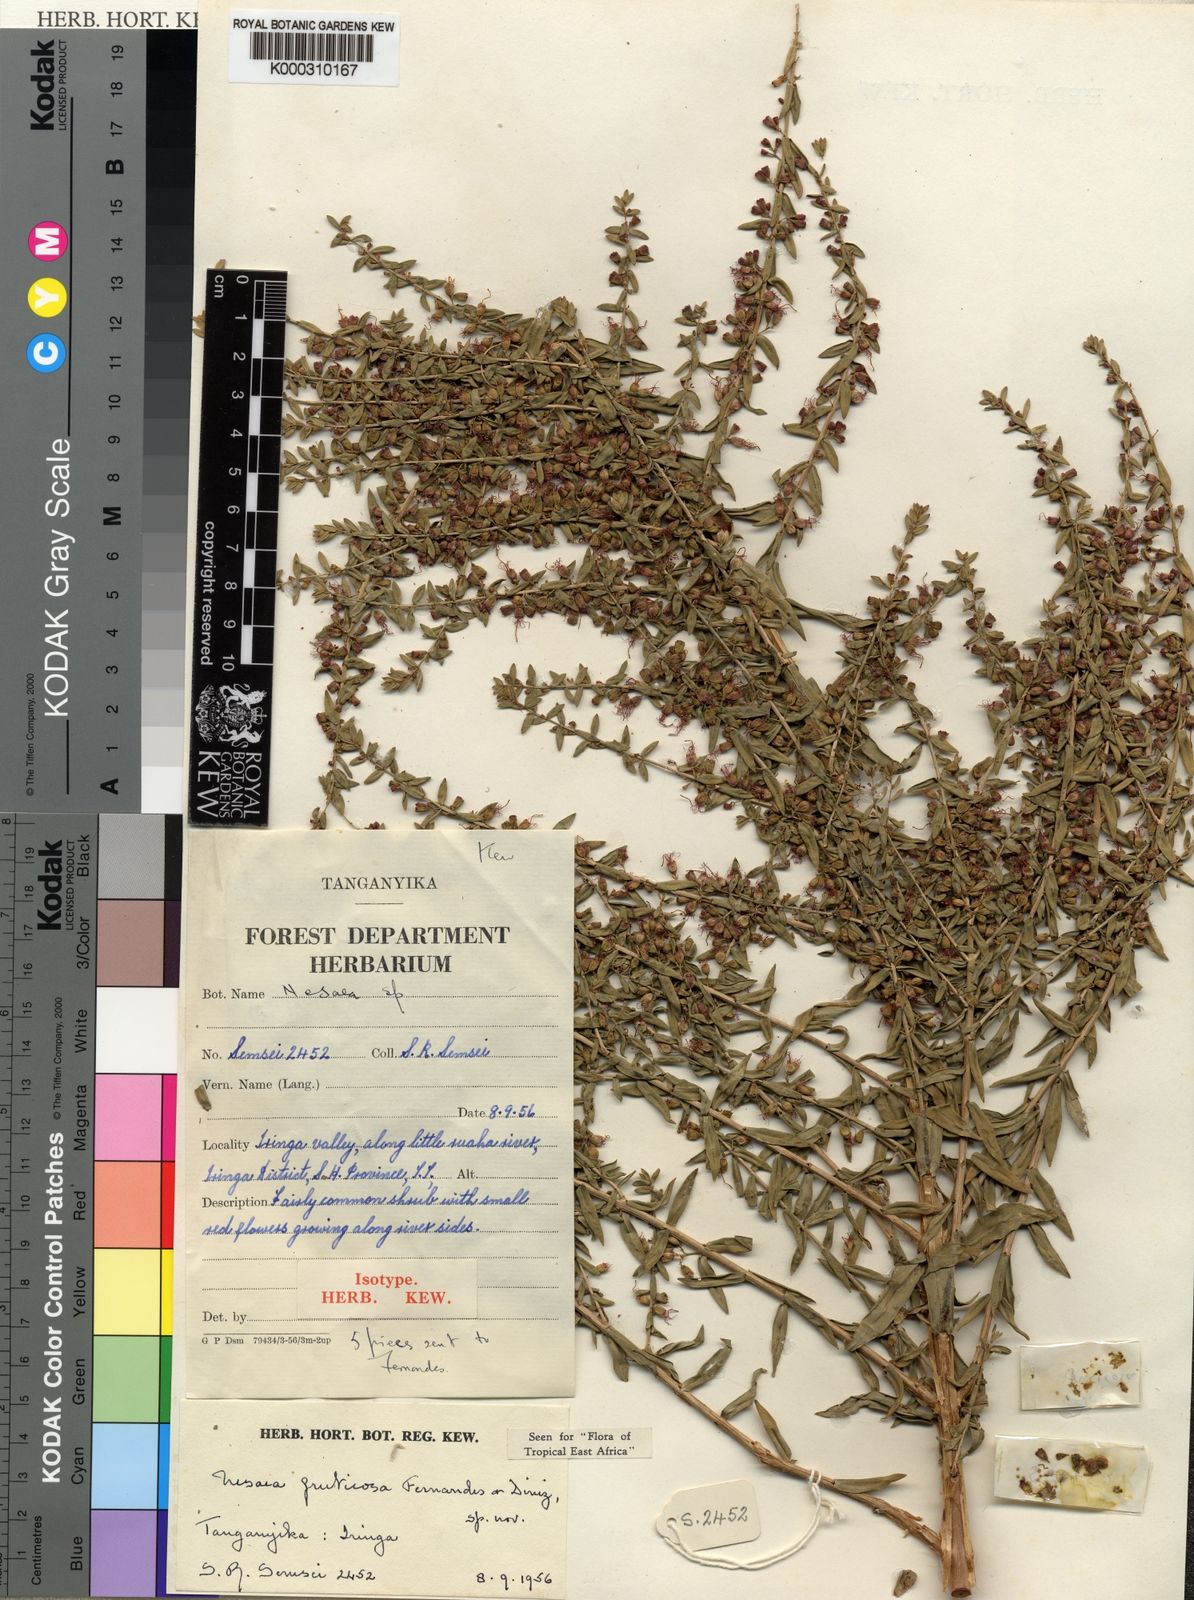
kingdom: Plantae
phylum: Tracheophyta
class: Magnoliopsida
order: Myrtales
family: Lythraceae
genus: Ammannia
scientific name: Ammannia fruticosa
